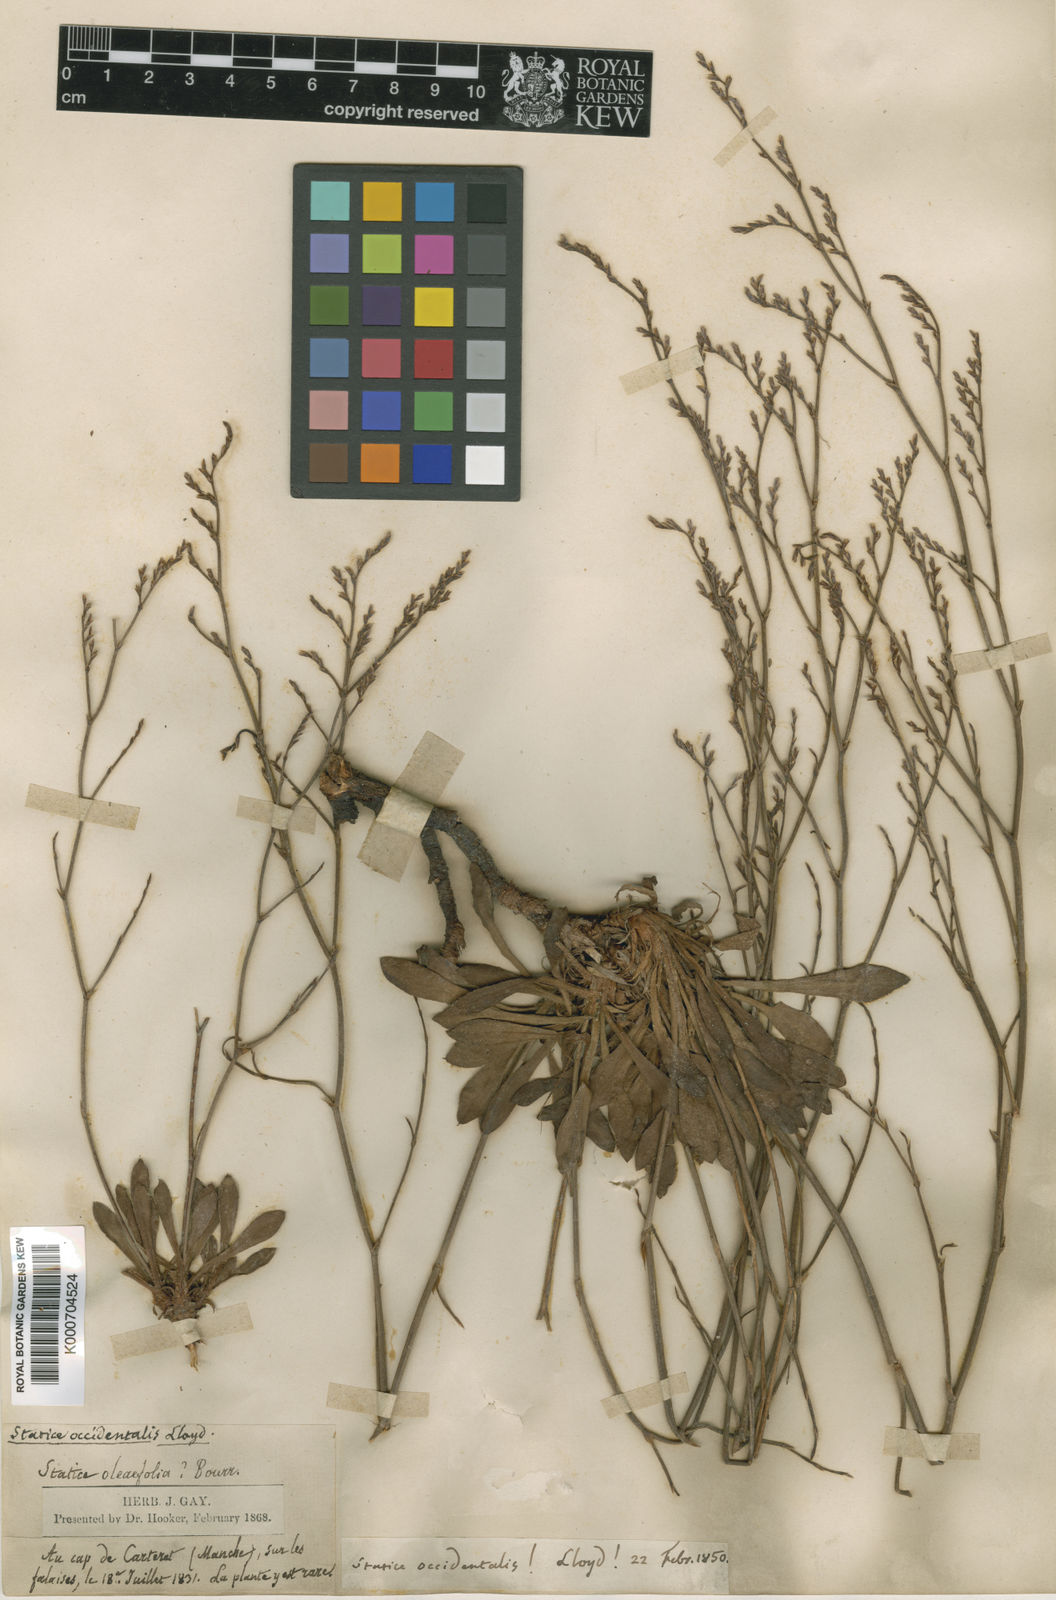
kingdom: Plantae
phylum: Tracheophyta
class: Magnoliopsida
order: Caryophyllales
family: Plumbaginaceae
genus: Limonium
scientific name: Limonium virgatum
